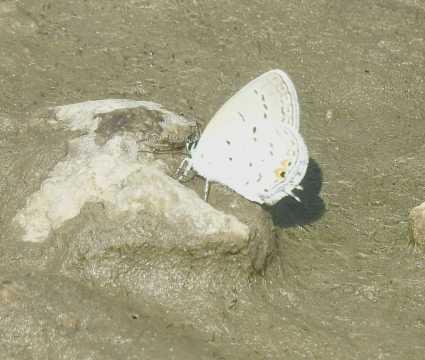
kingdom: Animalia
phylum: Arthropoda
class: Insecta
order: Lepidoptera
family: Lycaenidae
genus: Elkalyce
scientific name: Elkalyce comyntas
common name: Eastern Tailed-Blue
